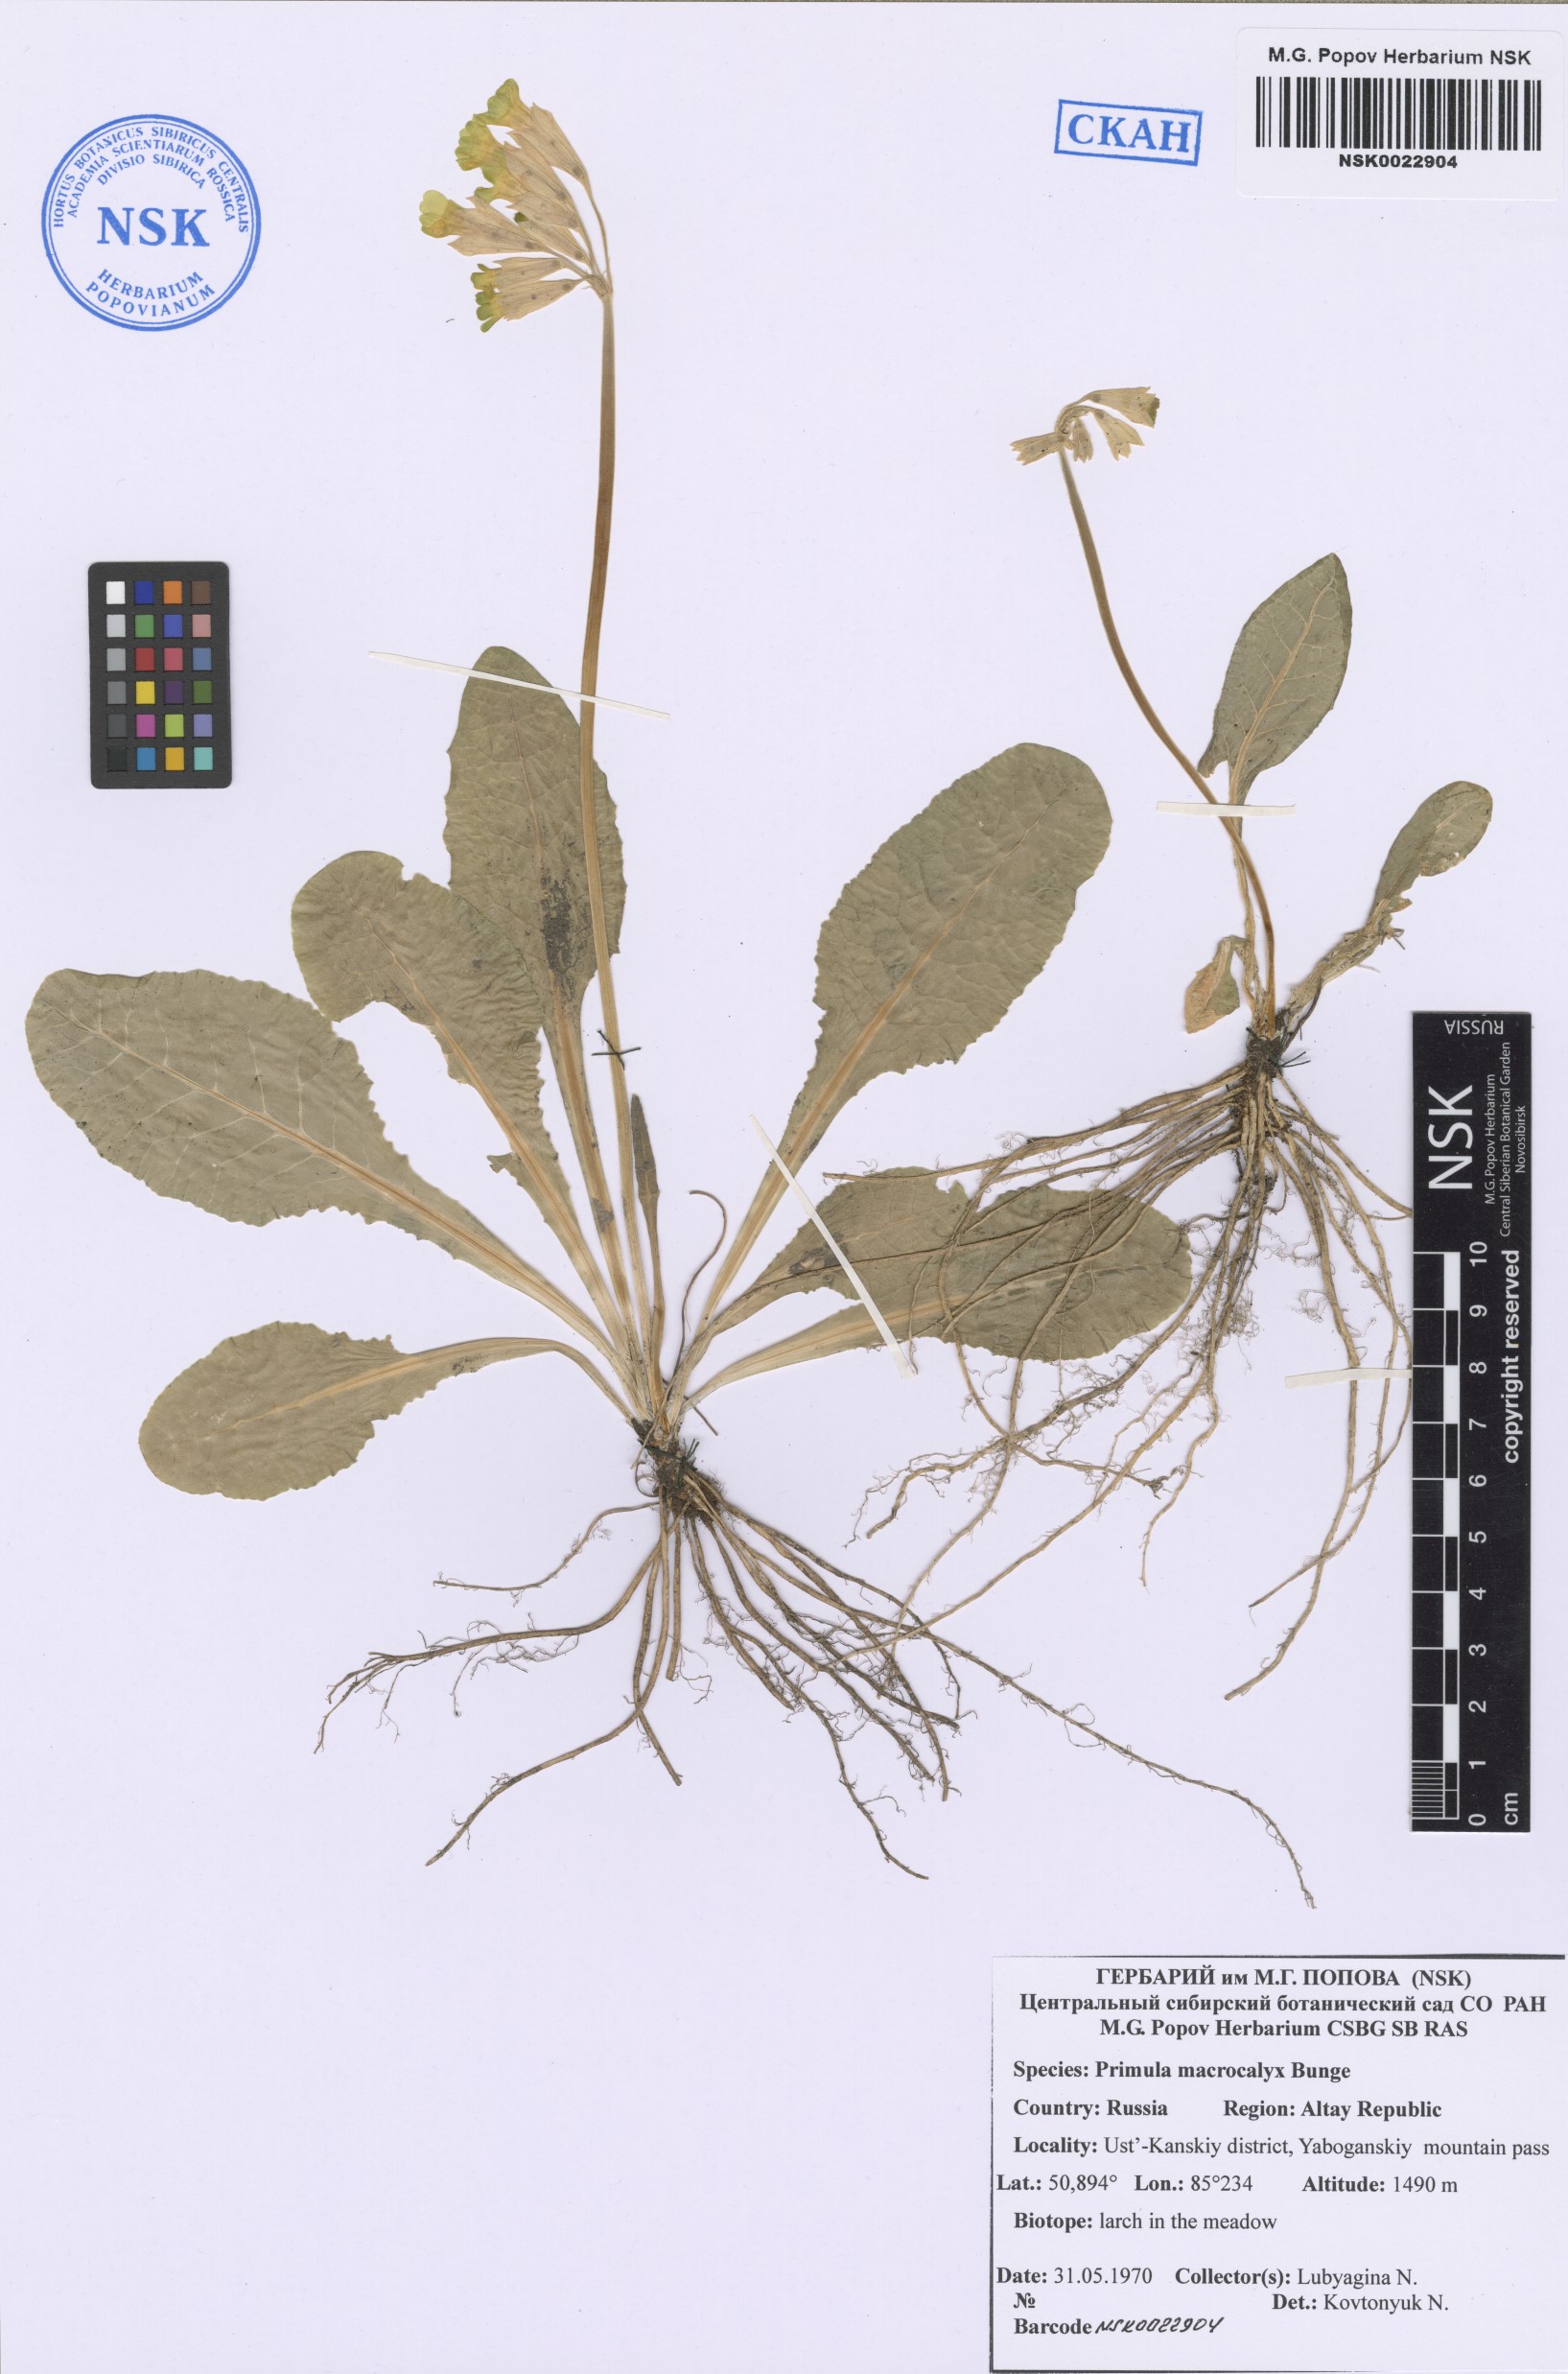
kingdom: Plantae
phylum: Tracheophyta
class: Magnoliopsida
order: Ericales
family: Primulaceae
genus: Primula
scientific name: Primula veris
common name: Cowslip
